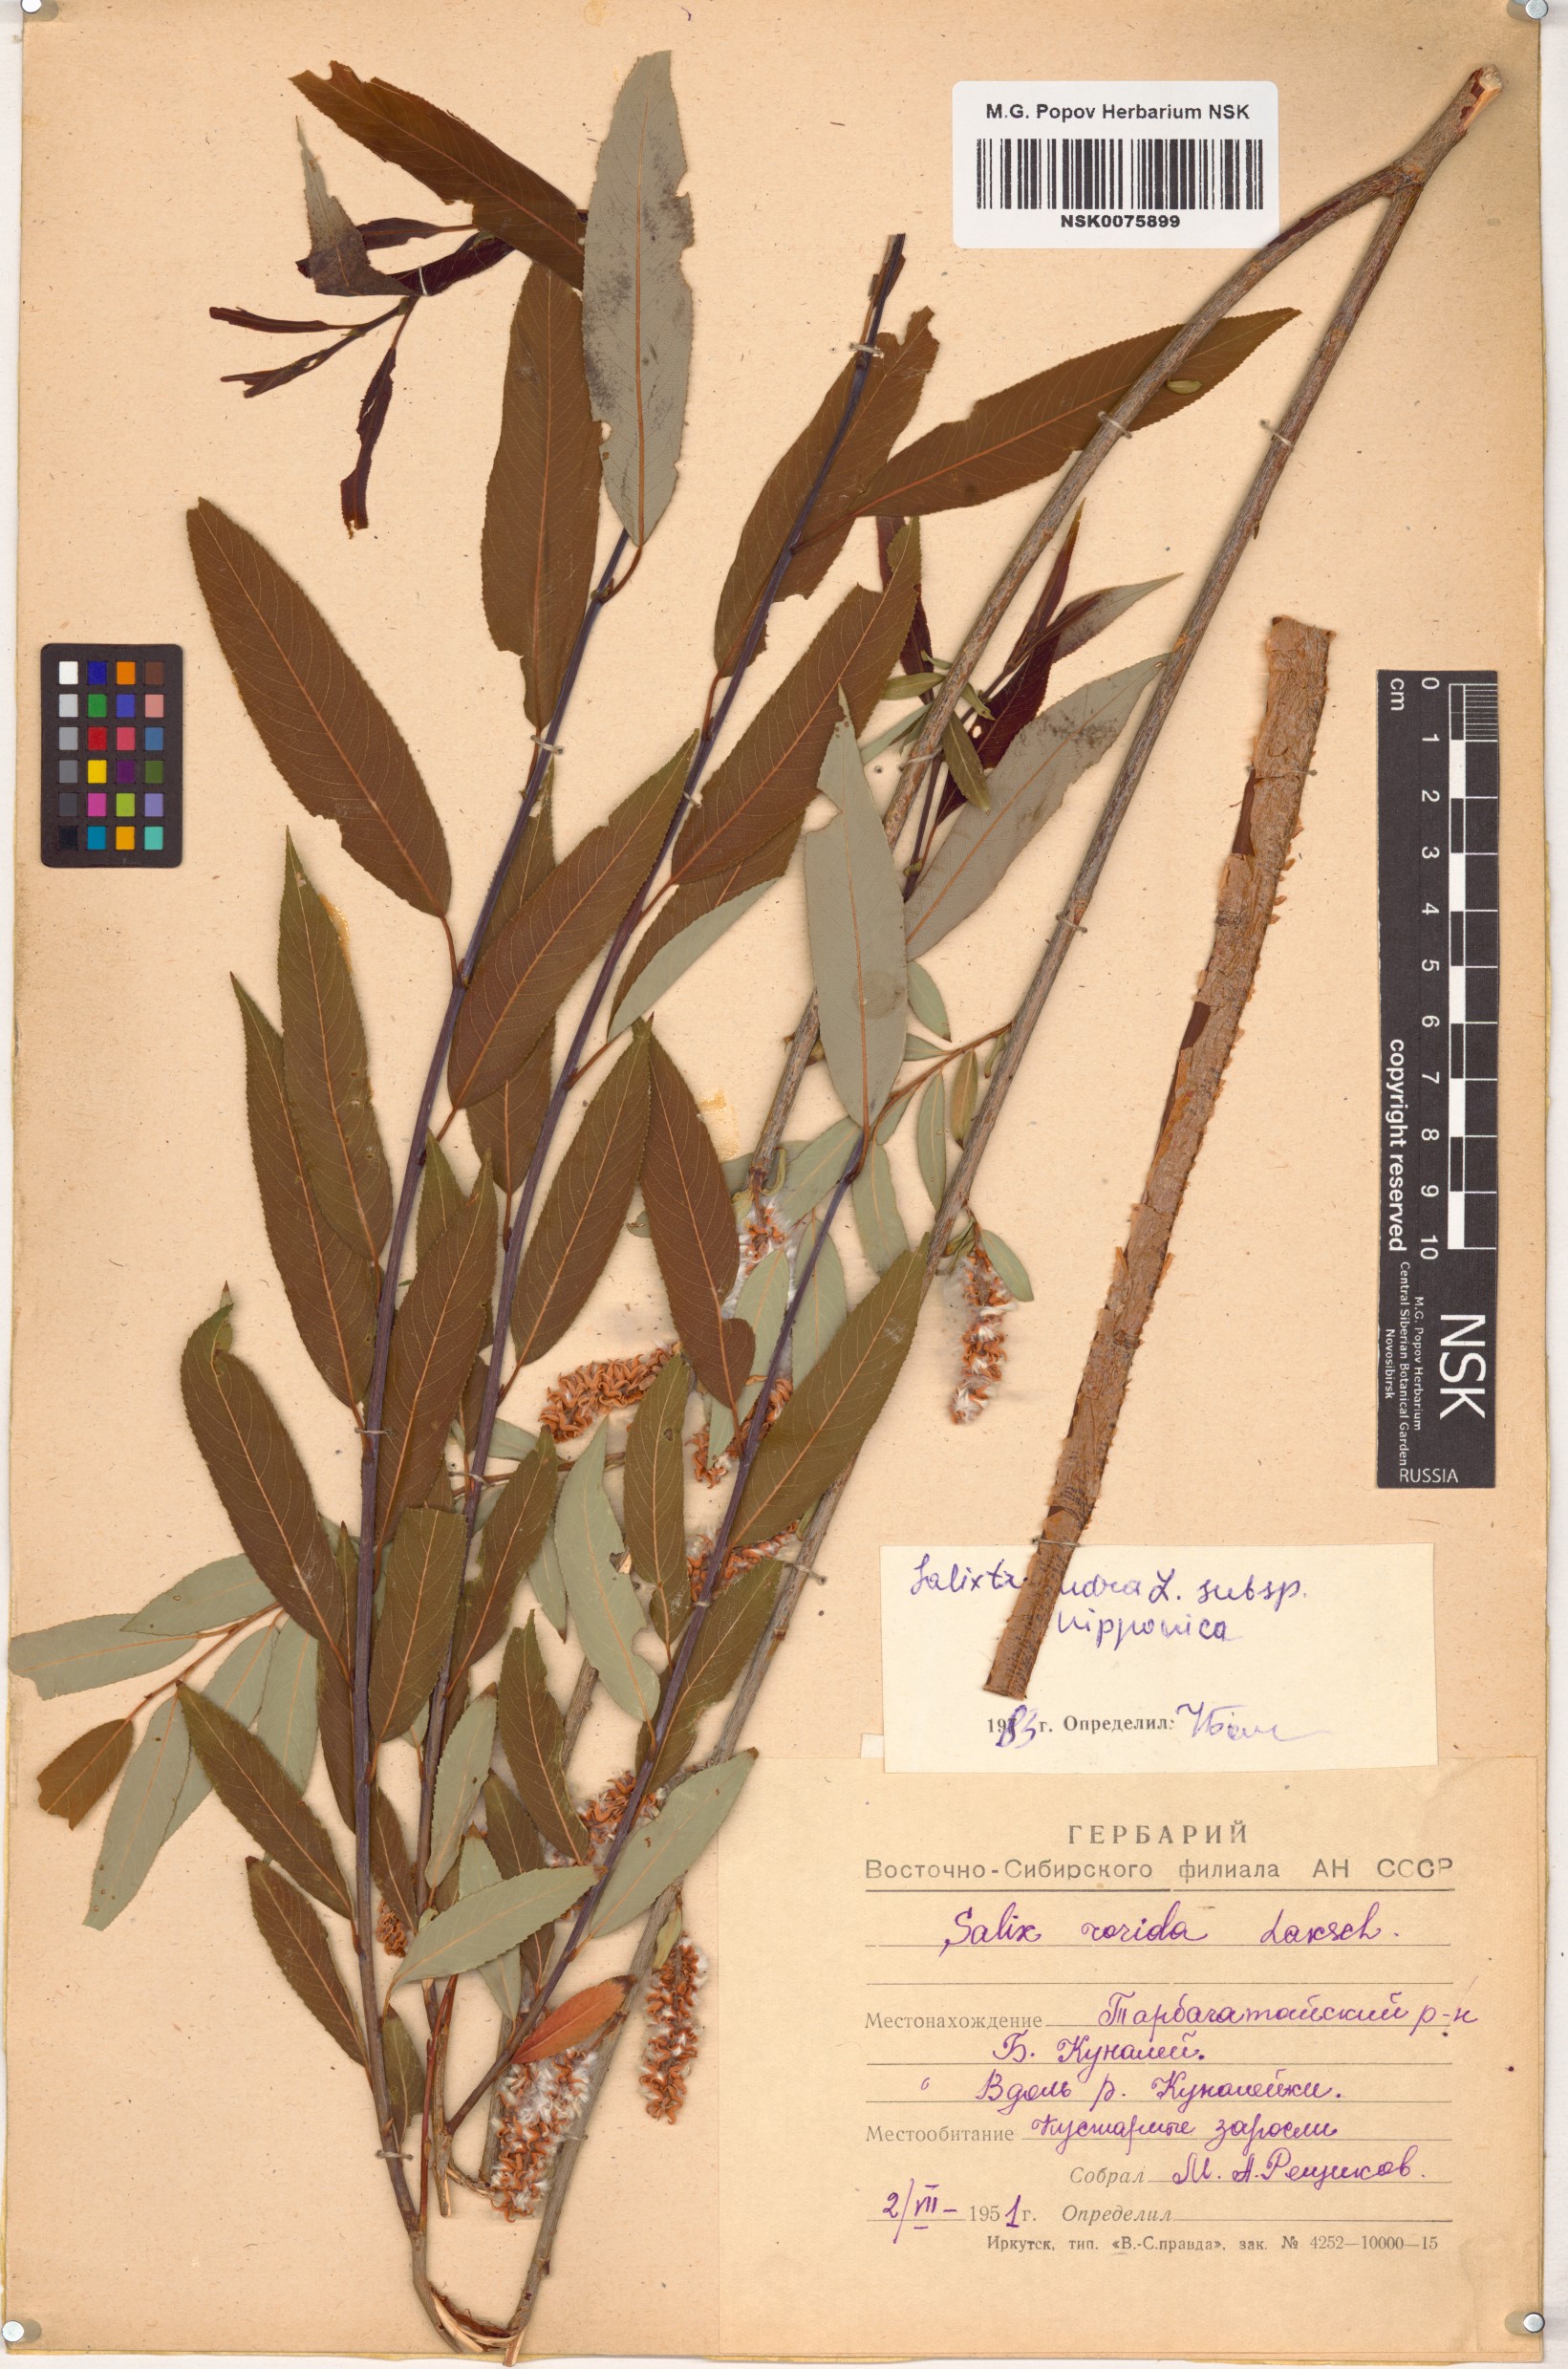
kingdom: Plantae
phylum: Tracheophyta
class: Magnoliopsida
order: Malpighiales
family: Salicaceae
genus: Salix
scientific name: Salix subfragilis
